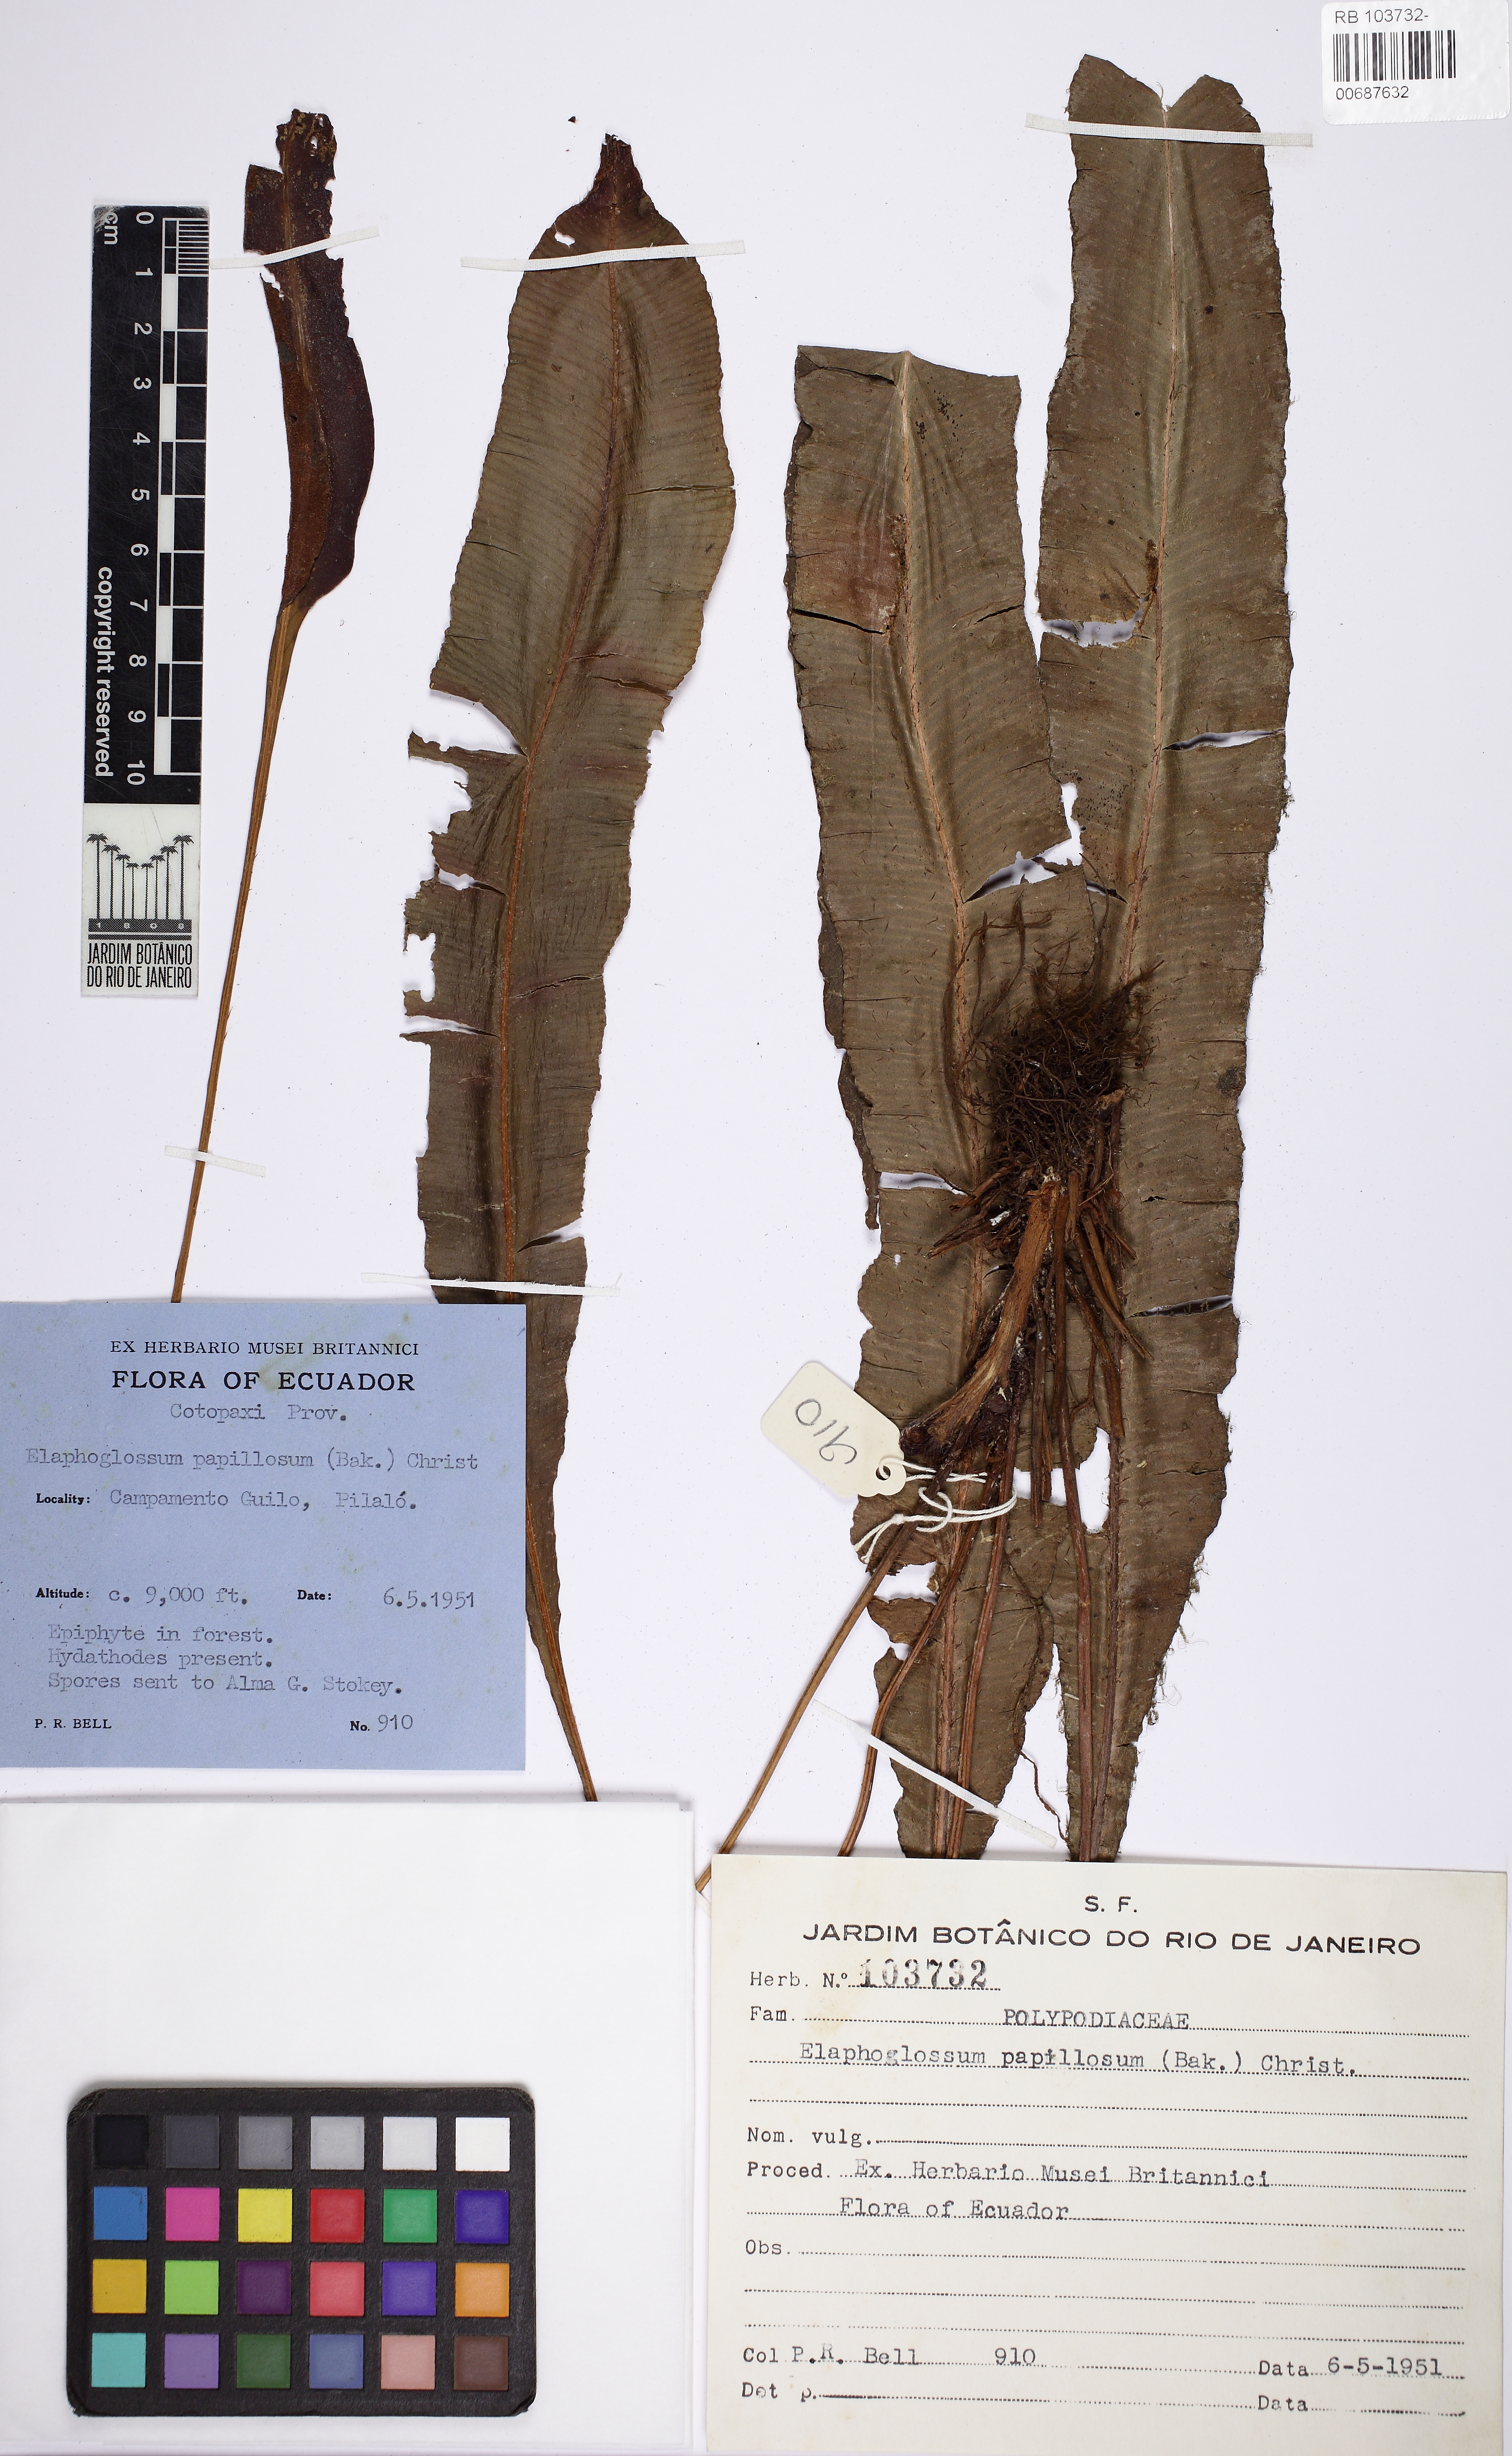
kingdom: Plantae
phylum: Tracheophyta
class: Polypodiopsida
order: Polypodiales
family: Dryopteridaceae
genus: Elaphoglossum
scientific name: Elaphoglossum papillosum
